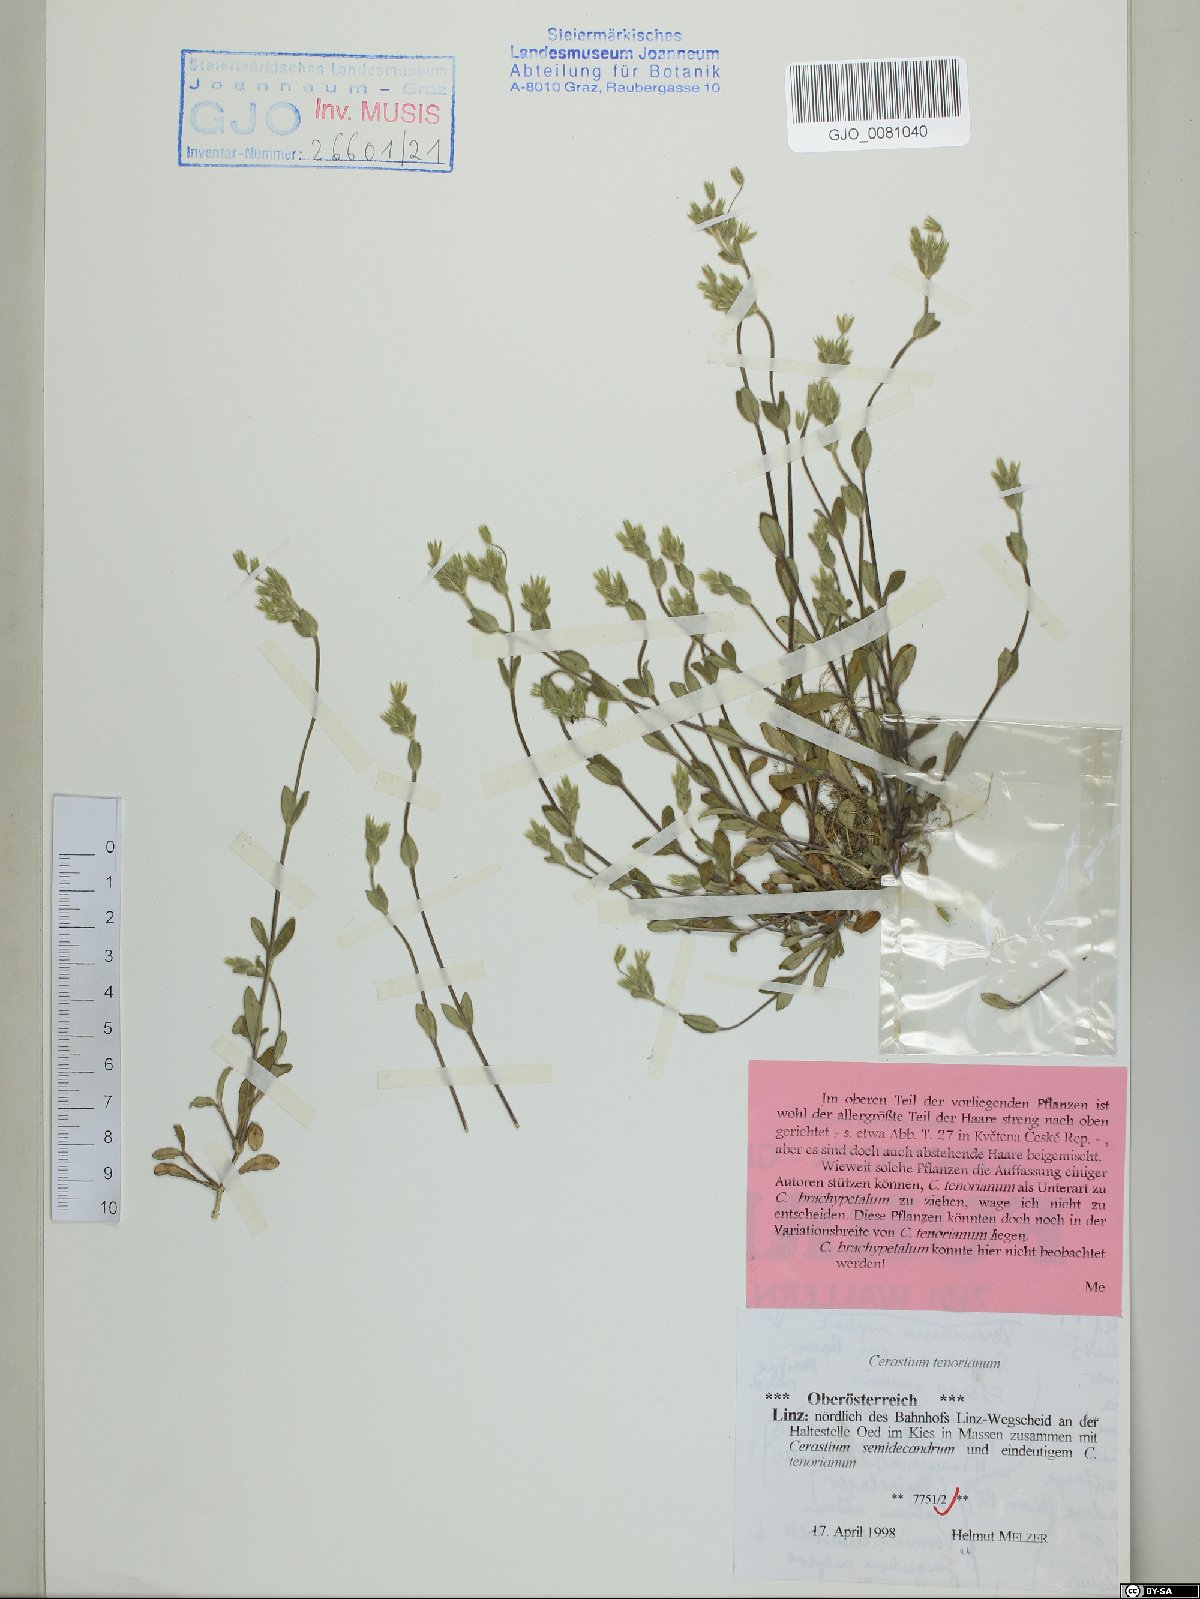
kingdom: Plantae
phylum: Tracheophyta
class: Magnoliopsida
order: Caryophyllales
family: Caryophyllaceae
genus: Cerastium
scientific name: Cerastium tenoreanum
